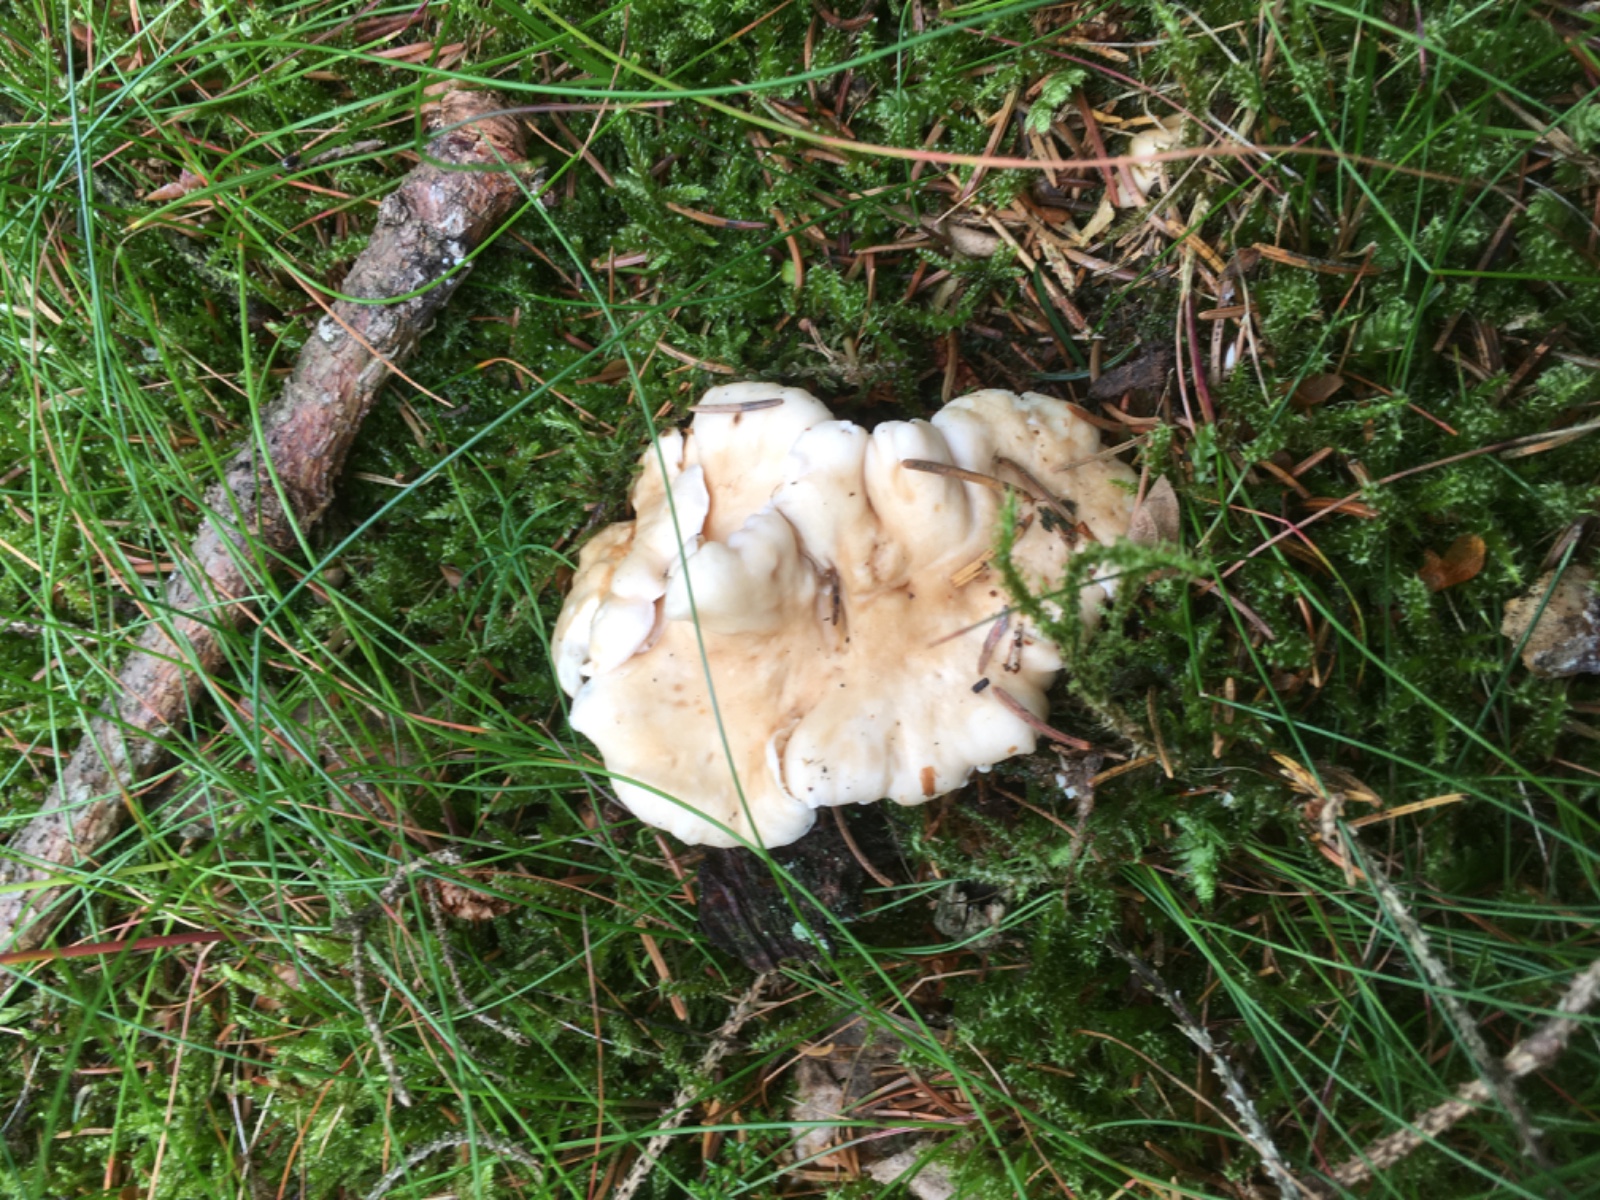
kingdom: Fungi
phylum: Basidiomycota
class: Agaricomycetes
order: Cantharellales
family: Hydnaceae
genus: Cantharellus
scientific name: Cantharellus cibarius
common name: almindelig kantarel
